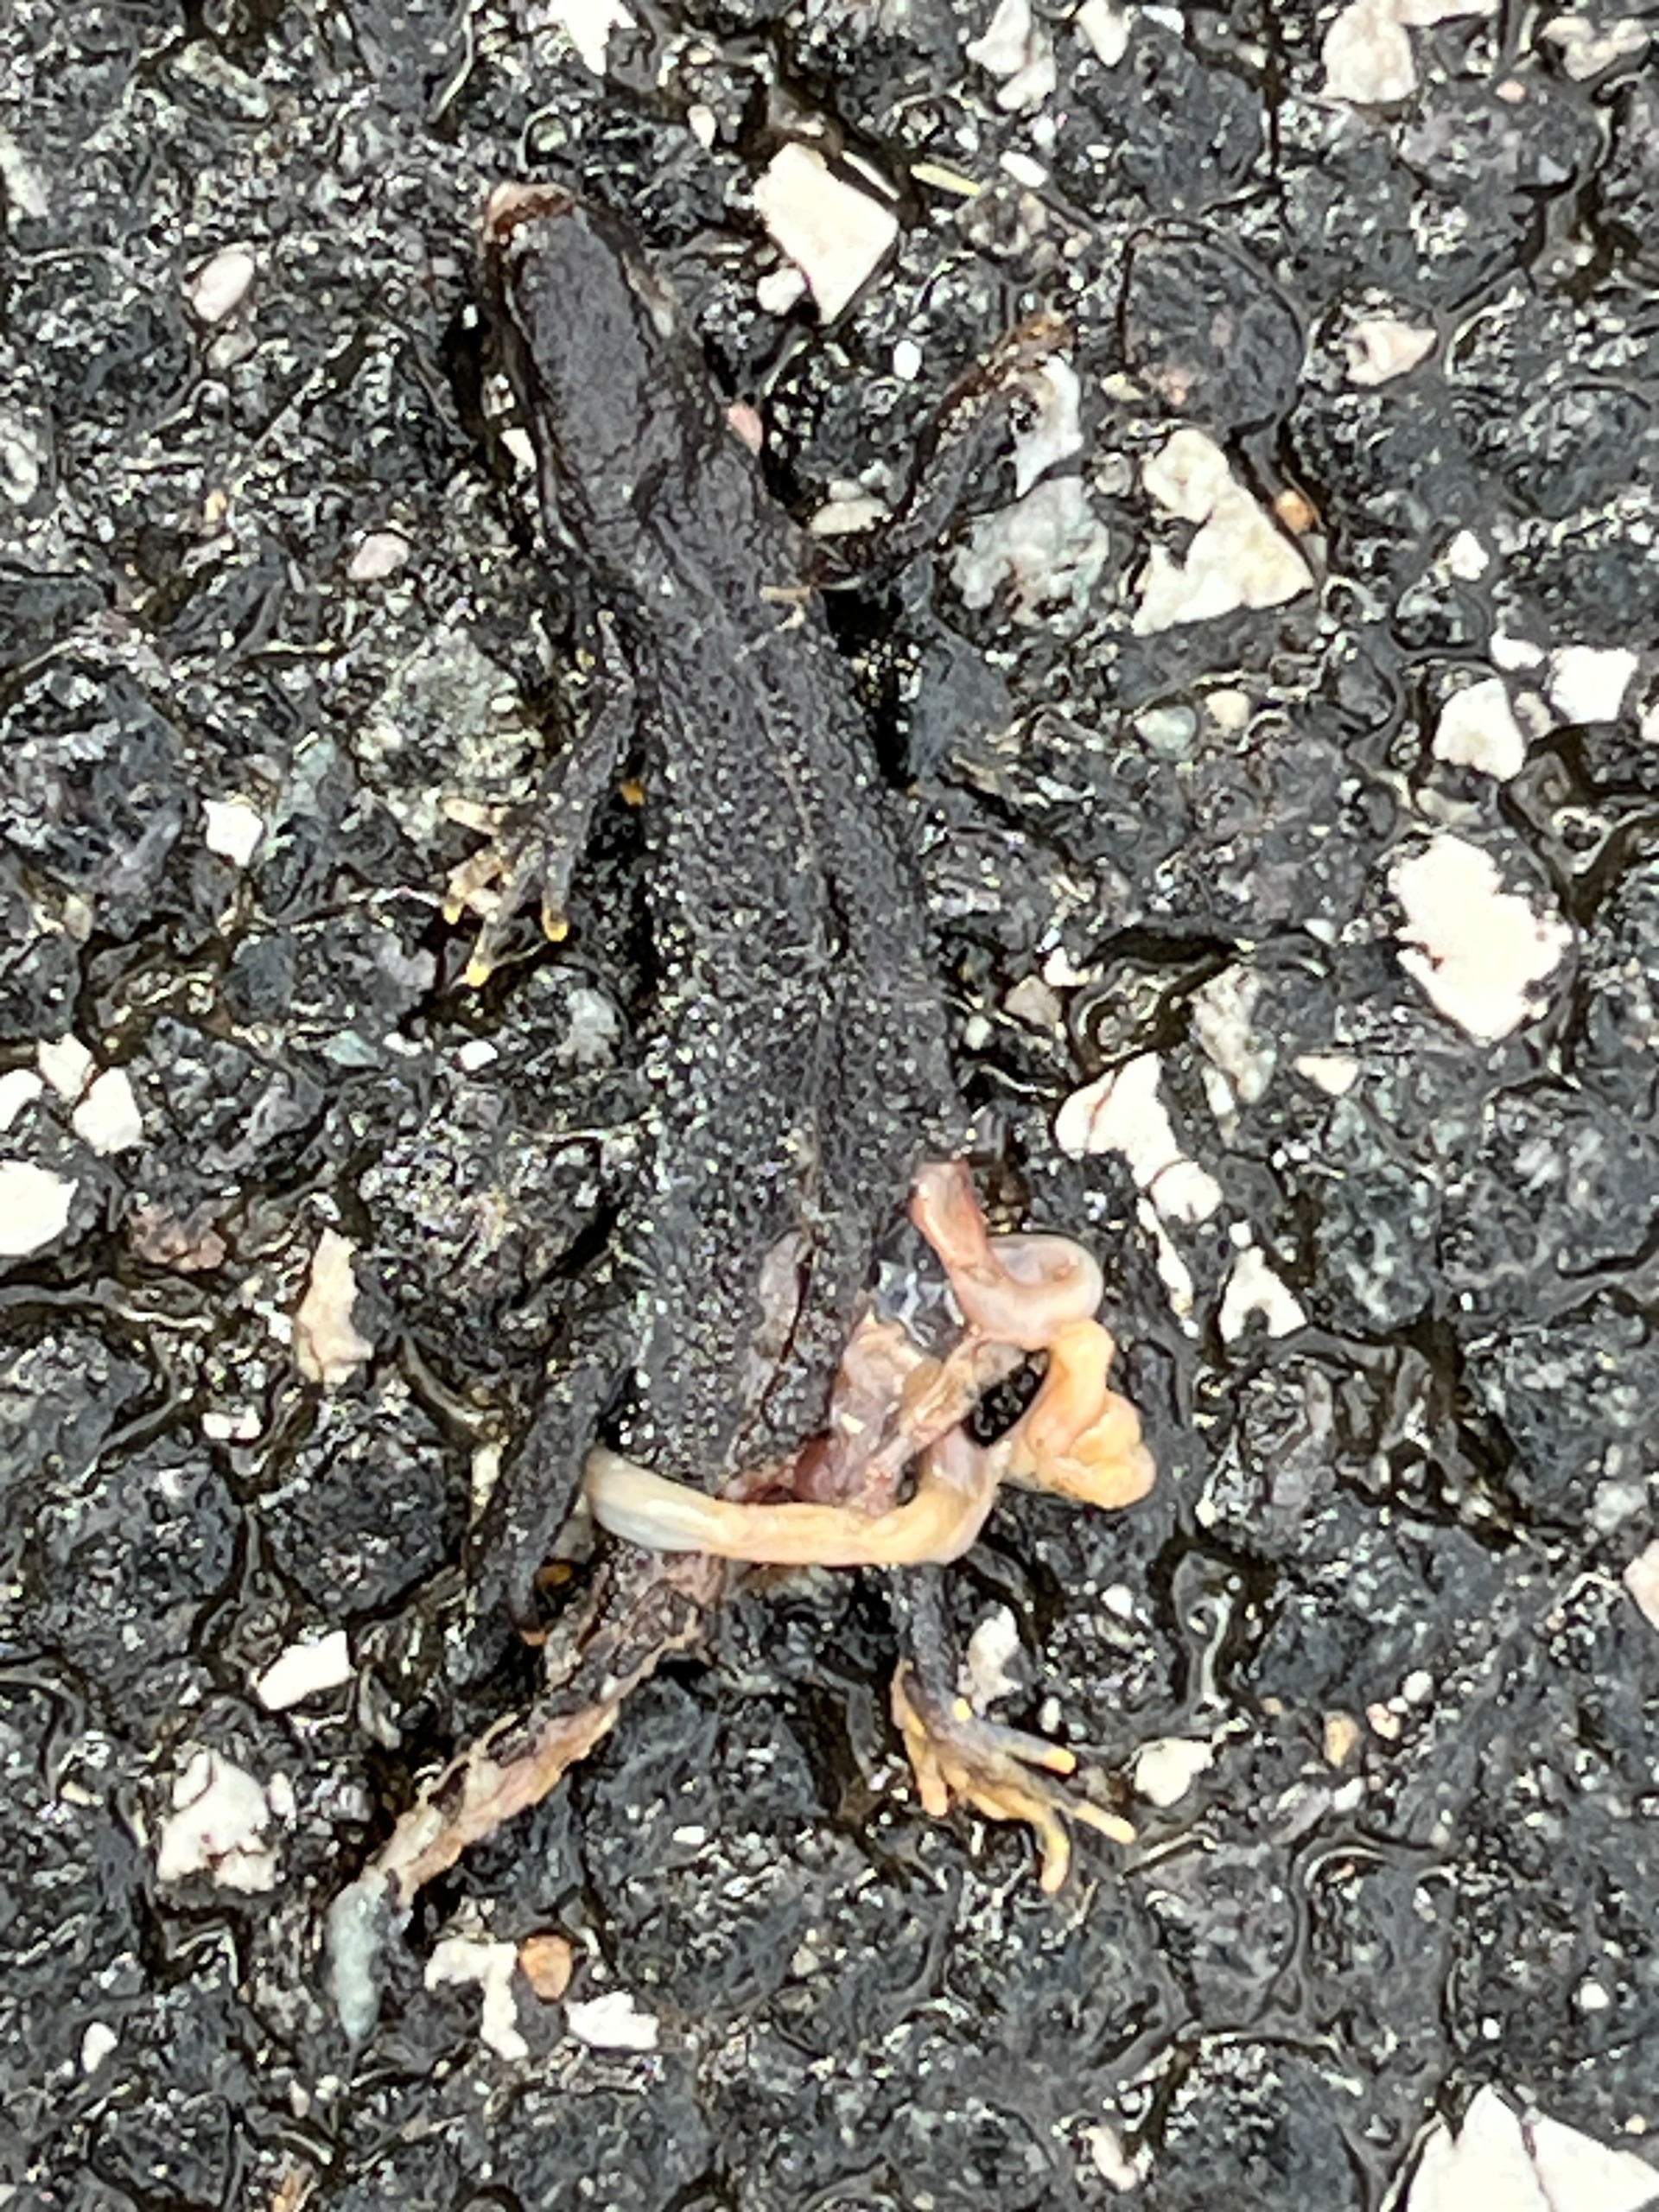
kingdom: Animalia
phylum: Chordata
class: Amphibia
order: Caudata
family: Salamandridae
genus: Triturus
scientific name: Triturus cristatus
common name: Stor vandsalamander
